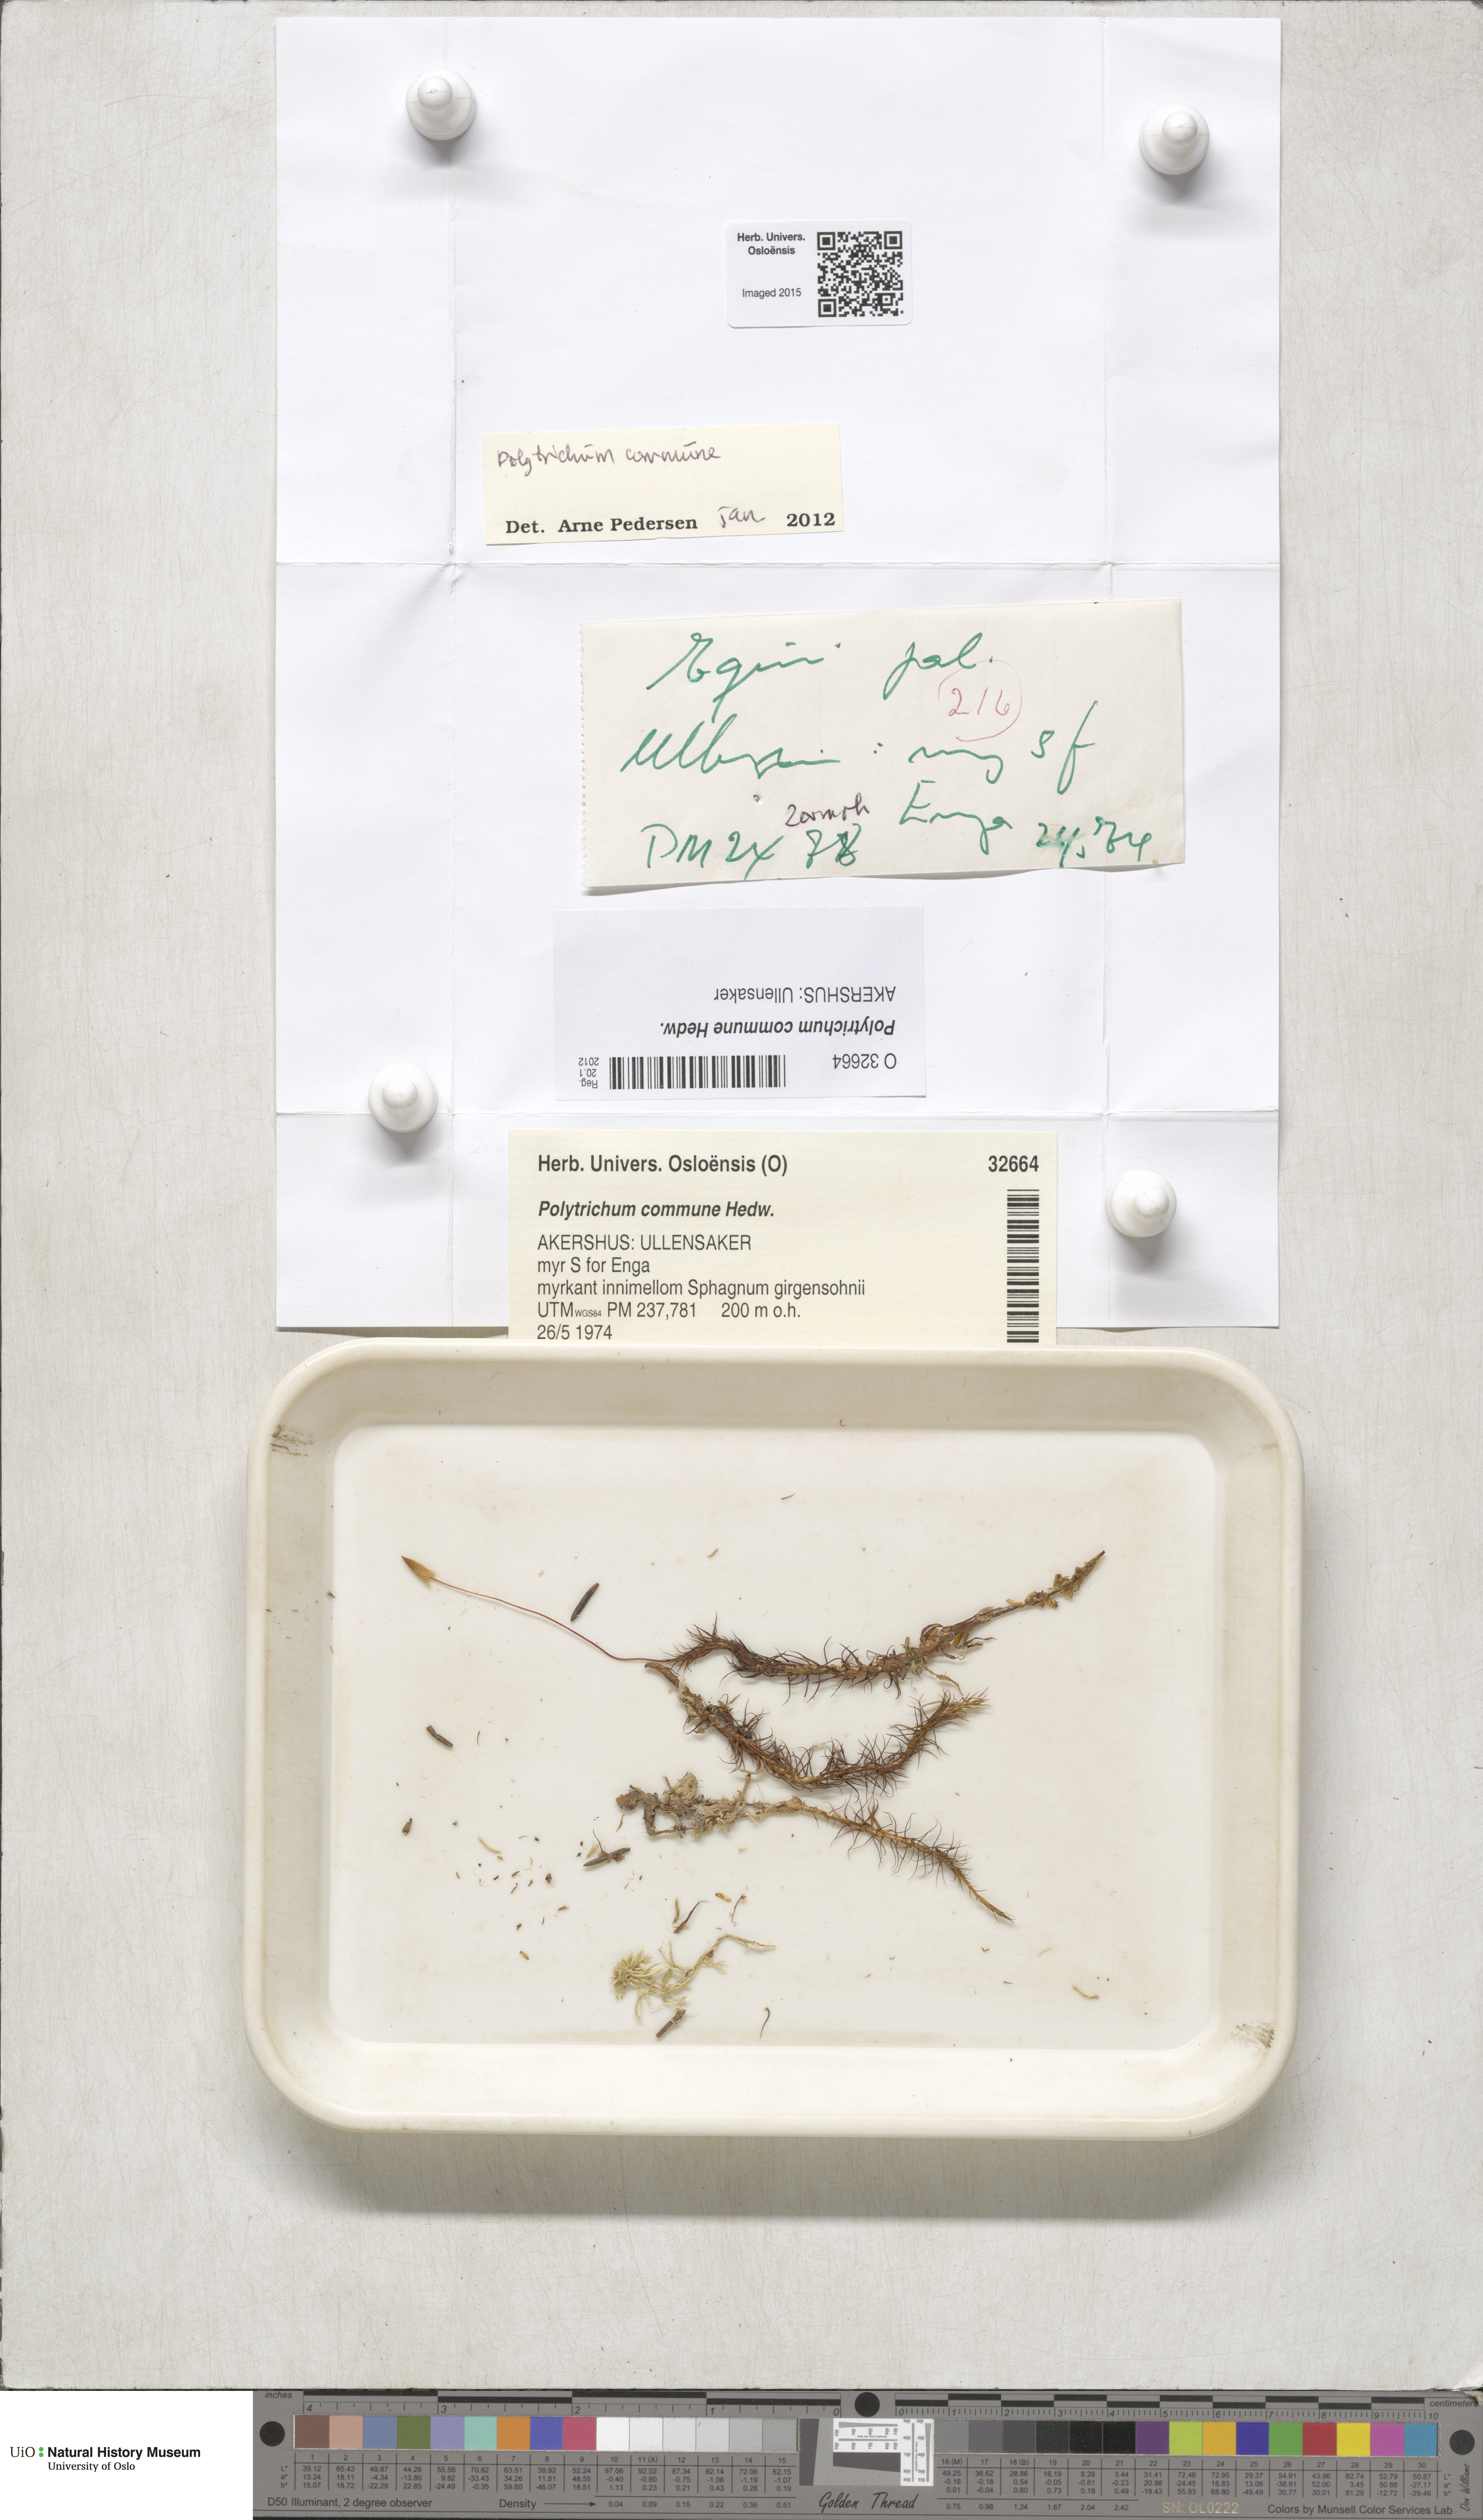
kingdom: Plantae
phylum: Bryophyta
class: Polytrichopsida
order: Polytrichales
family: Polytrichaceae
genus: Polytrichum
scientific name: Polytrichum commune
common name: Common haircap
